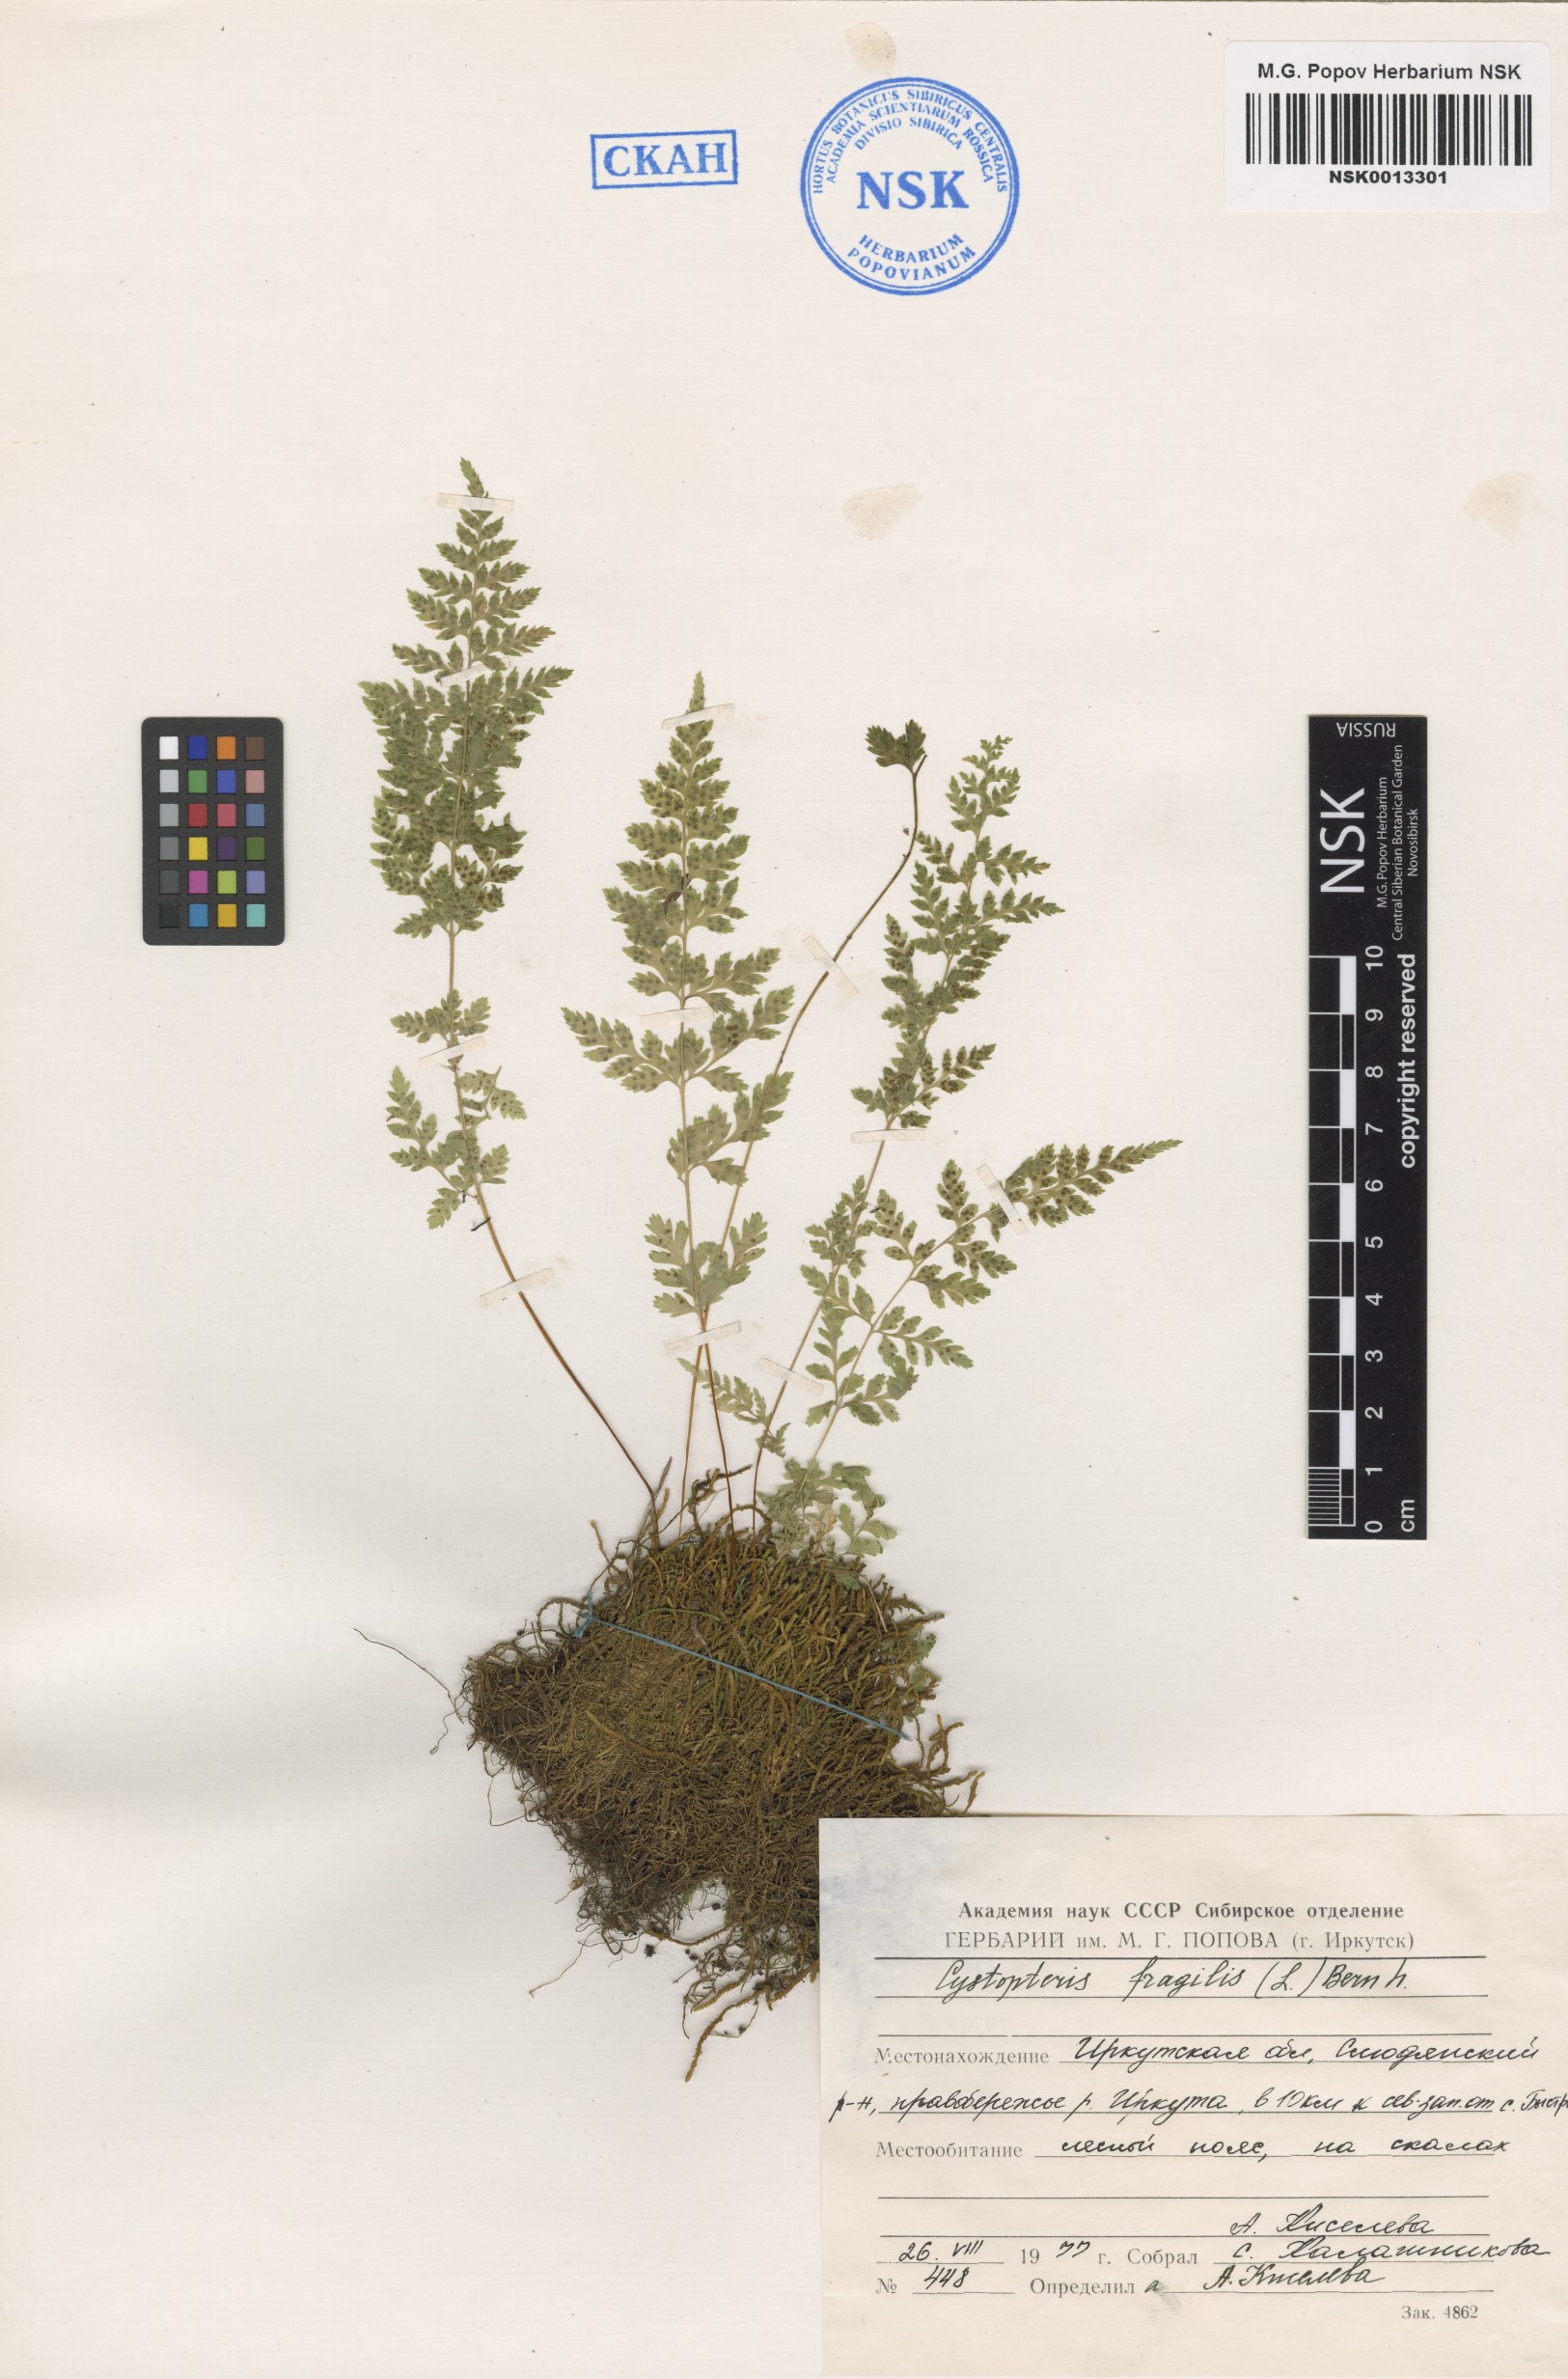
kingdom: Plantae
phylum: Tracheophyta
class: Polypodiopsida
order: Polypodiales
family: Cystopteridaceae
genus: Cystopteris
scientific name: Cystopteris fragilis
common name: Brittle bladder fern
